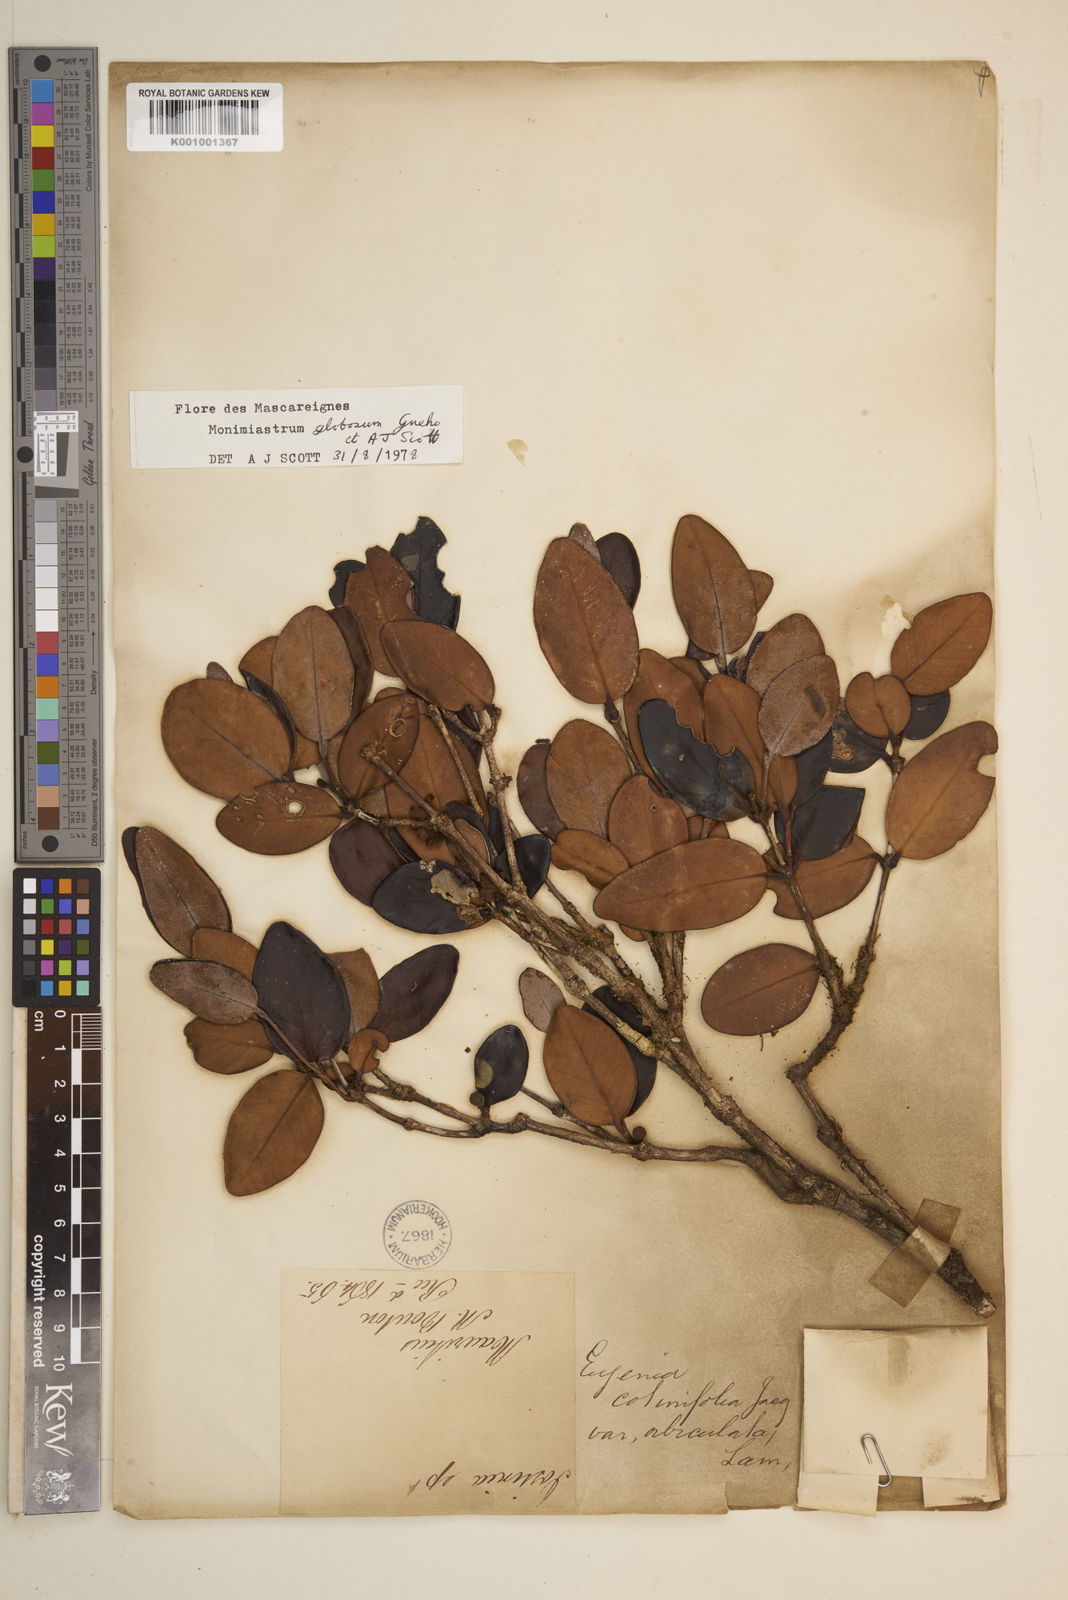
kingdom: Plantae
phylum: Tracheophyta
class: Magnoliopsida
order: Myrtales
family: Myrtaceae
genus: Eugenia
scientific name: Eugenia kanakana
